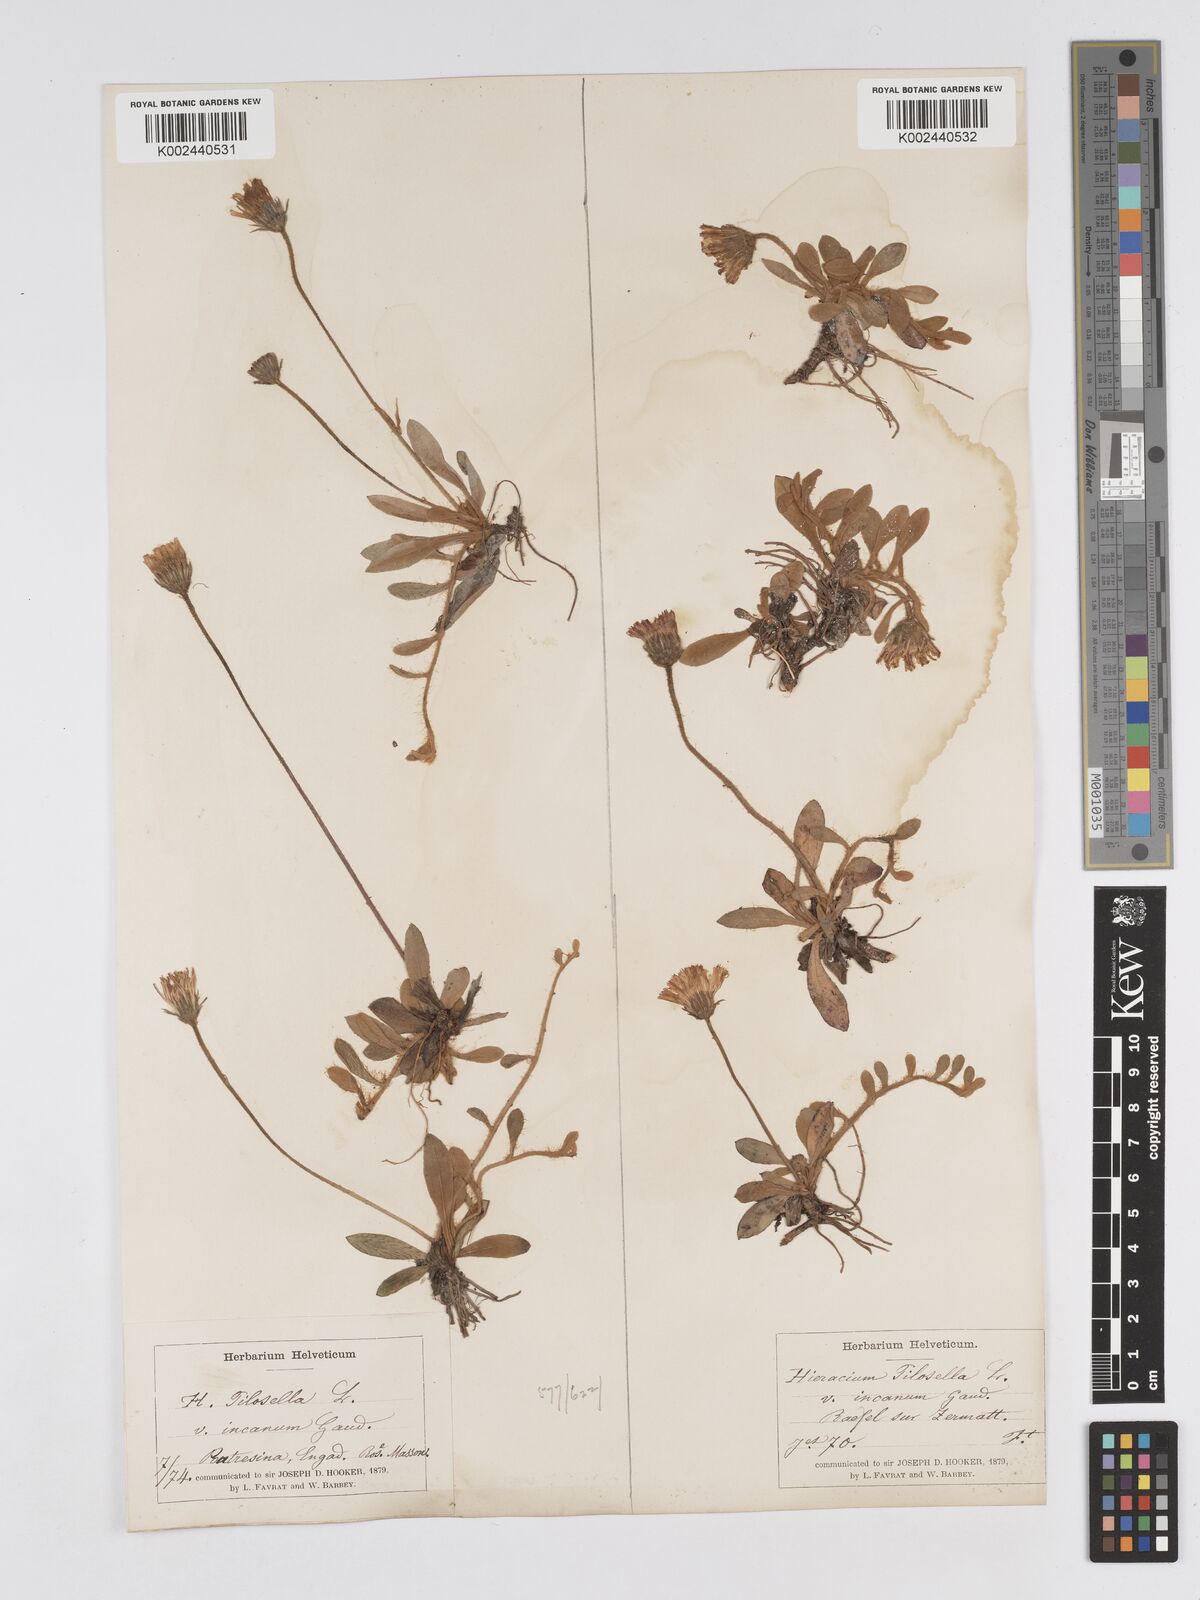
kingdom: Plantae
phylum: Tracheophyta
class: Magnoliopsida
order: Asterales
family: Asteraceae
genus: Pilosella
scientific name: Pilosella velutina
